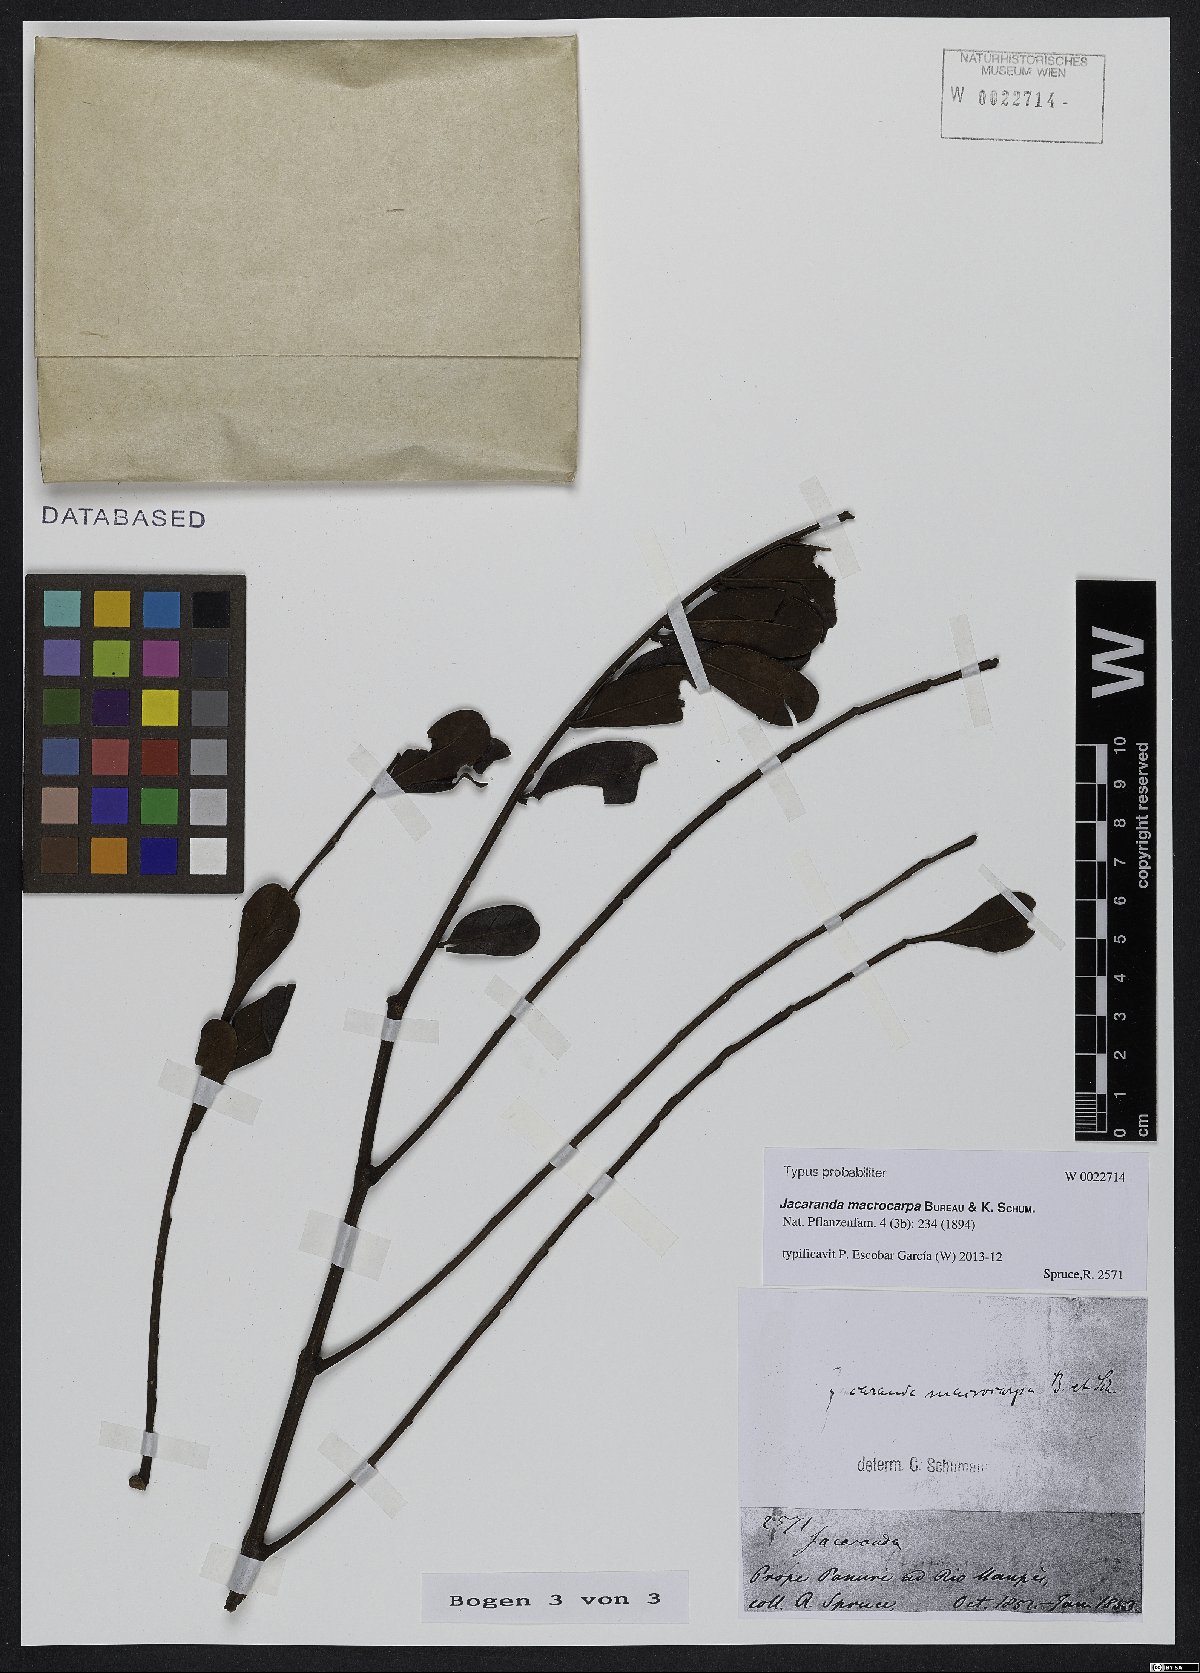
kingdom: Plantae
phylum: Tracheophyta
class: Magnoliopsida
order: Lamiales
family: Bignoniaceae
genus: Jacaranda
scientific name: Jacaranda macrocarpa
